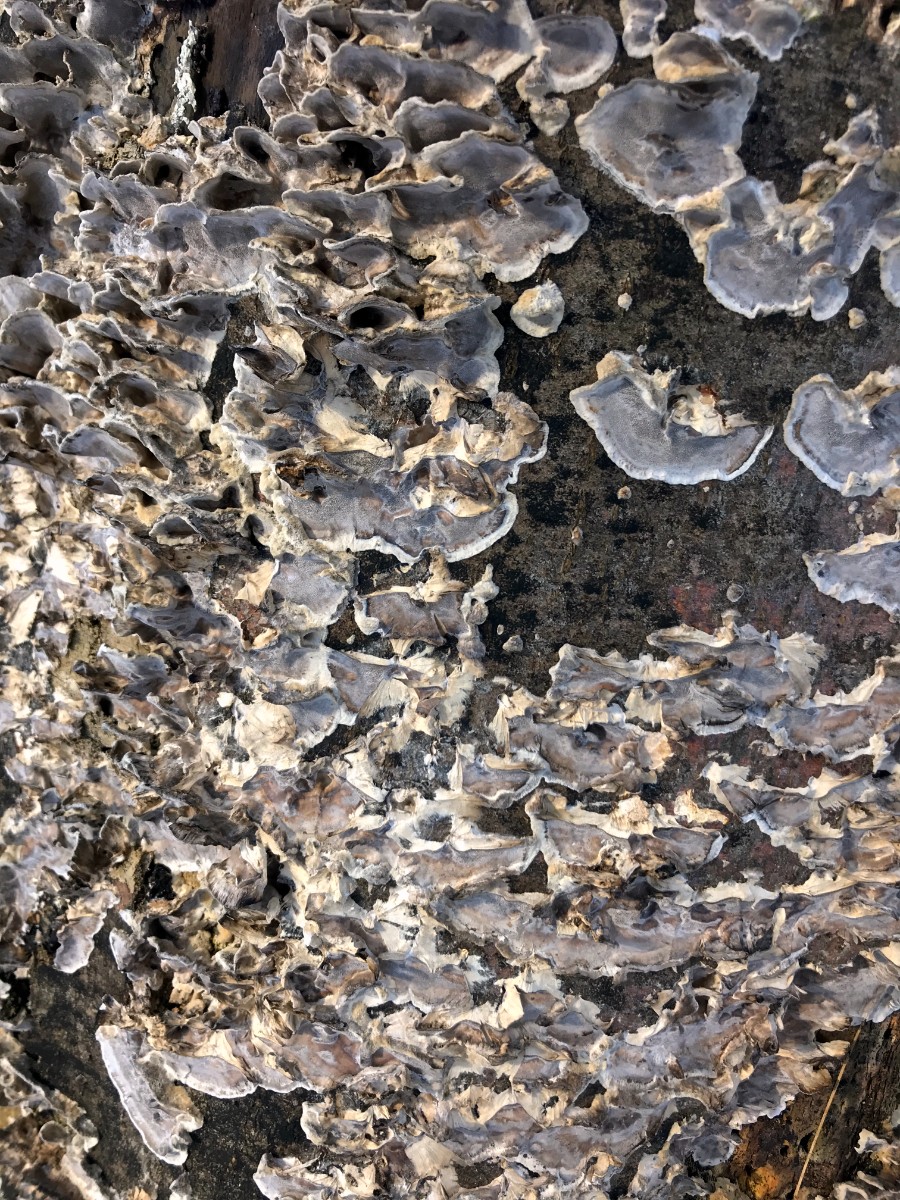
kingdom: Fungi
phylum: Basidiomycota
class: Agaricomycetes
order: Polyporales
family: Phanerochaetaceae
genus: Bjerkandera
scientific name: Bjerkandera adusta
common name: sveden sodporesvamp
